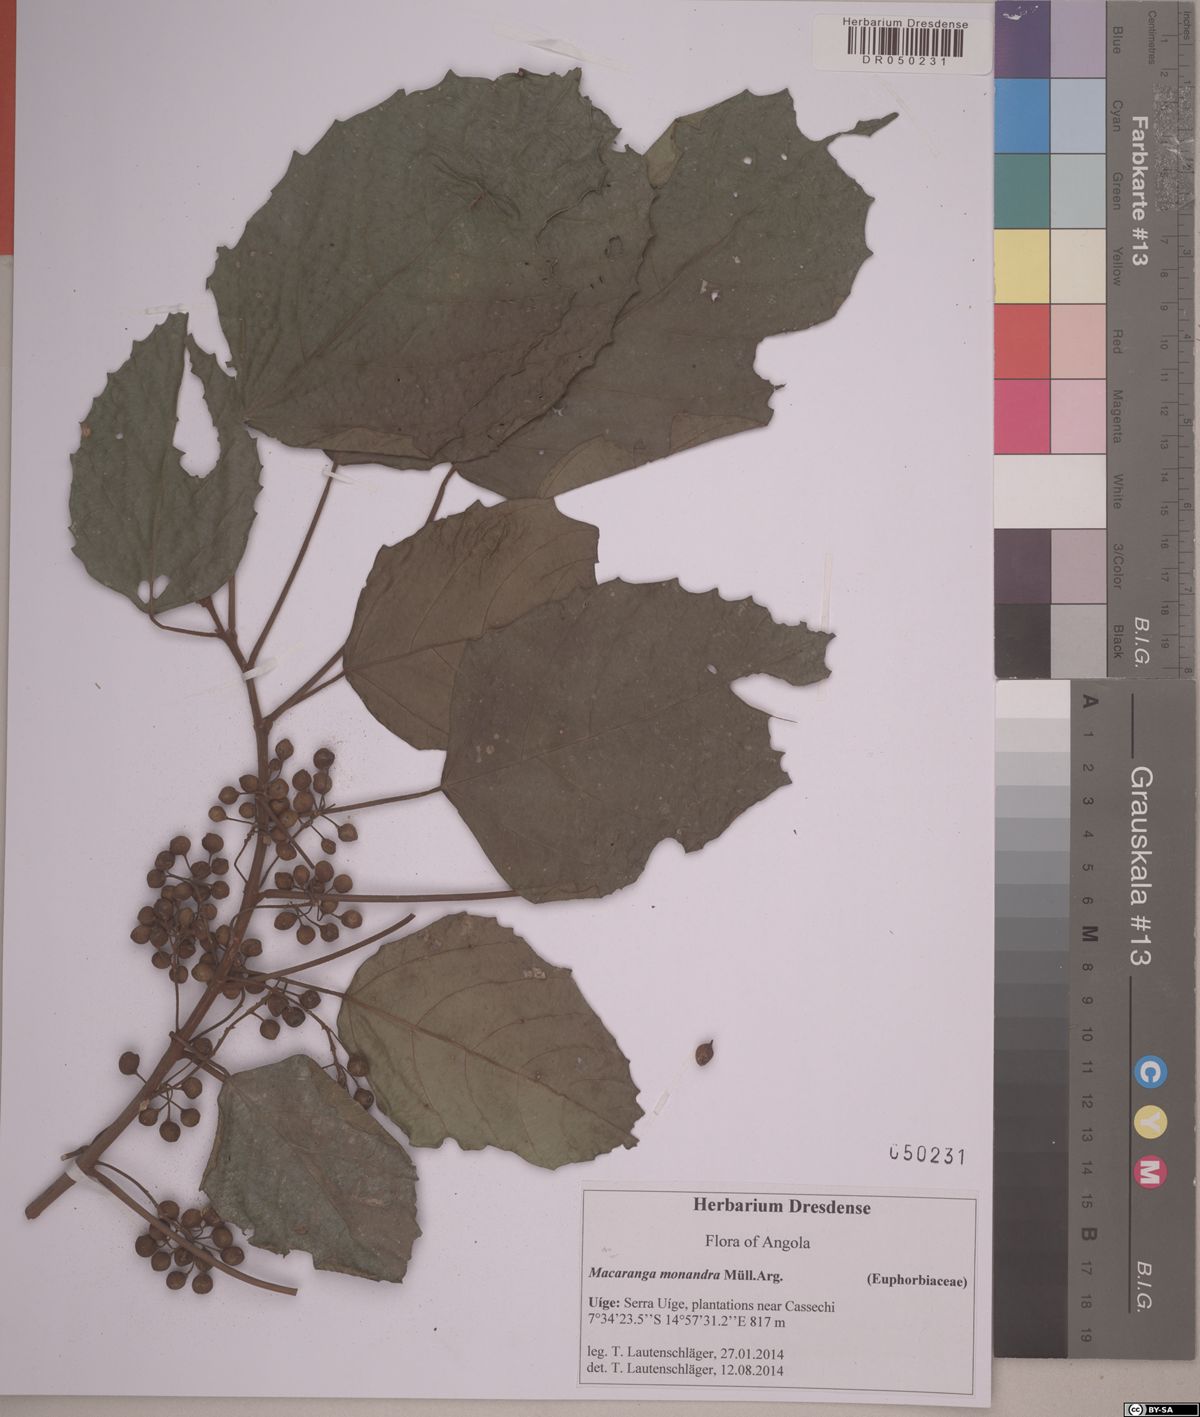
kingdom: Plantae
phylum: Tracheophyta
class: Magnoliopsida
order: Malpighiales
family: Euphorbiaceae
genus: Macaranga
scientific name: Macaranga monandra
